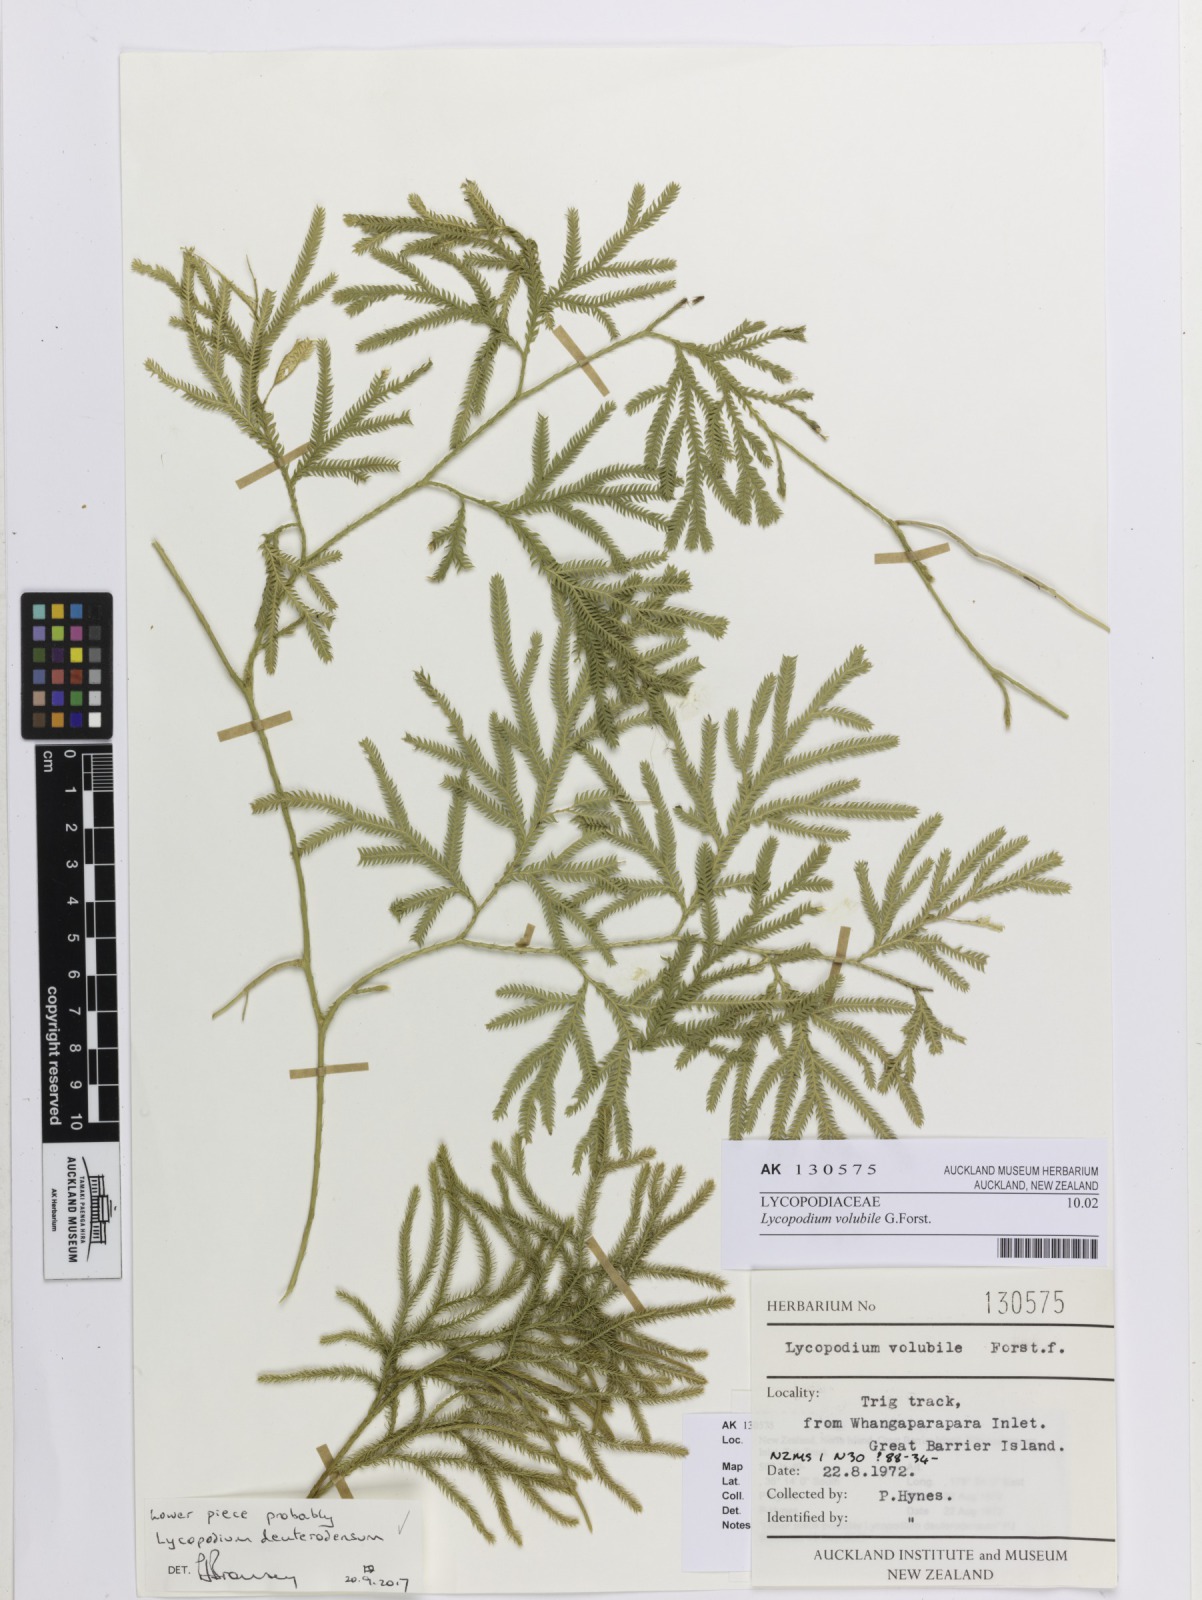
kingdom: Plantae
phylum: Tracheophyta
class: Lycopodiopsida
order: Lycopodiales
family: Lycopodiaceae
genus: Pseudodiphasium
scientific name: Pseudodiphasium volubile
